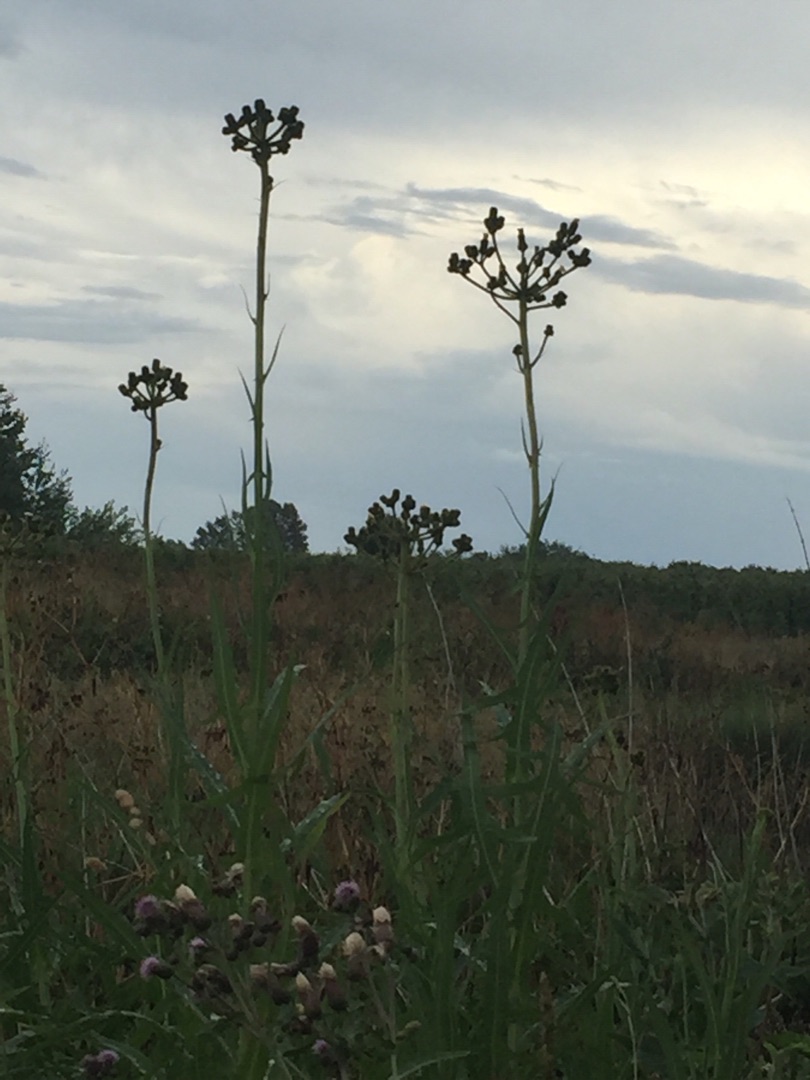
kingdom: Plantae
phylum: Tracheophyta
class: Magnoliopsida
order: Asterales
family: Asteraceae
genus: Sonchus
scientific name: Sonchus palustris
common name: Kær-svinemælk
